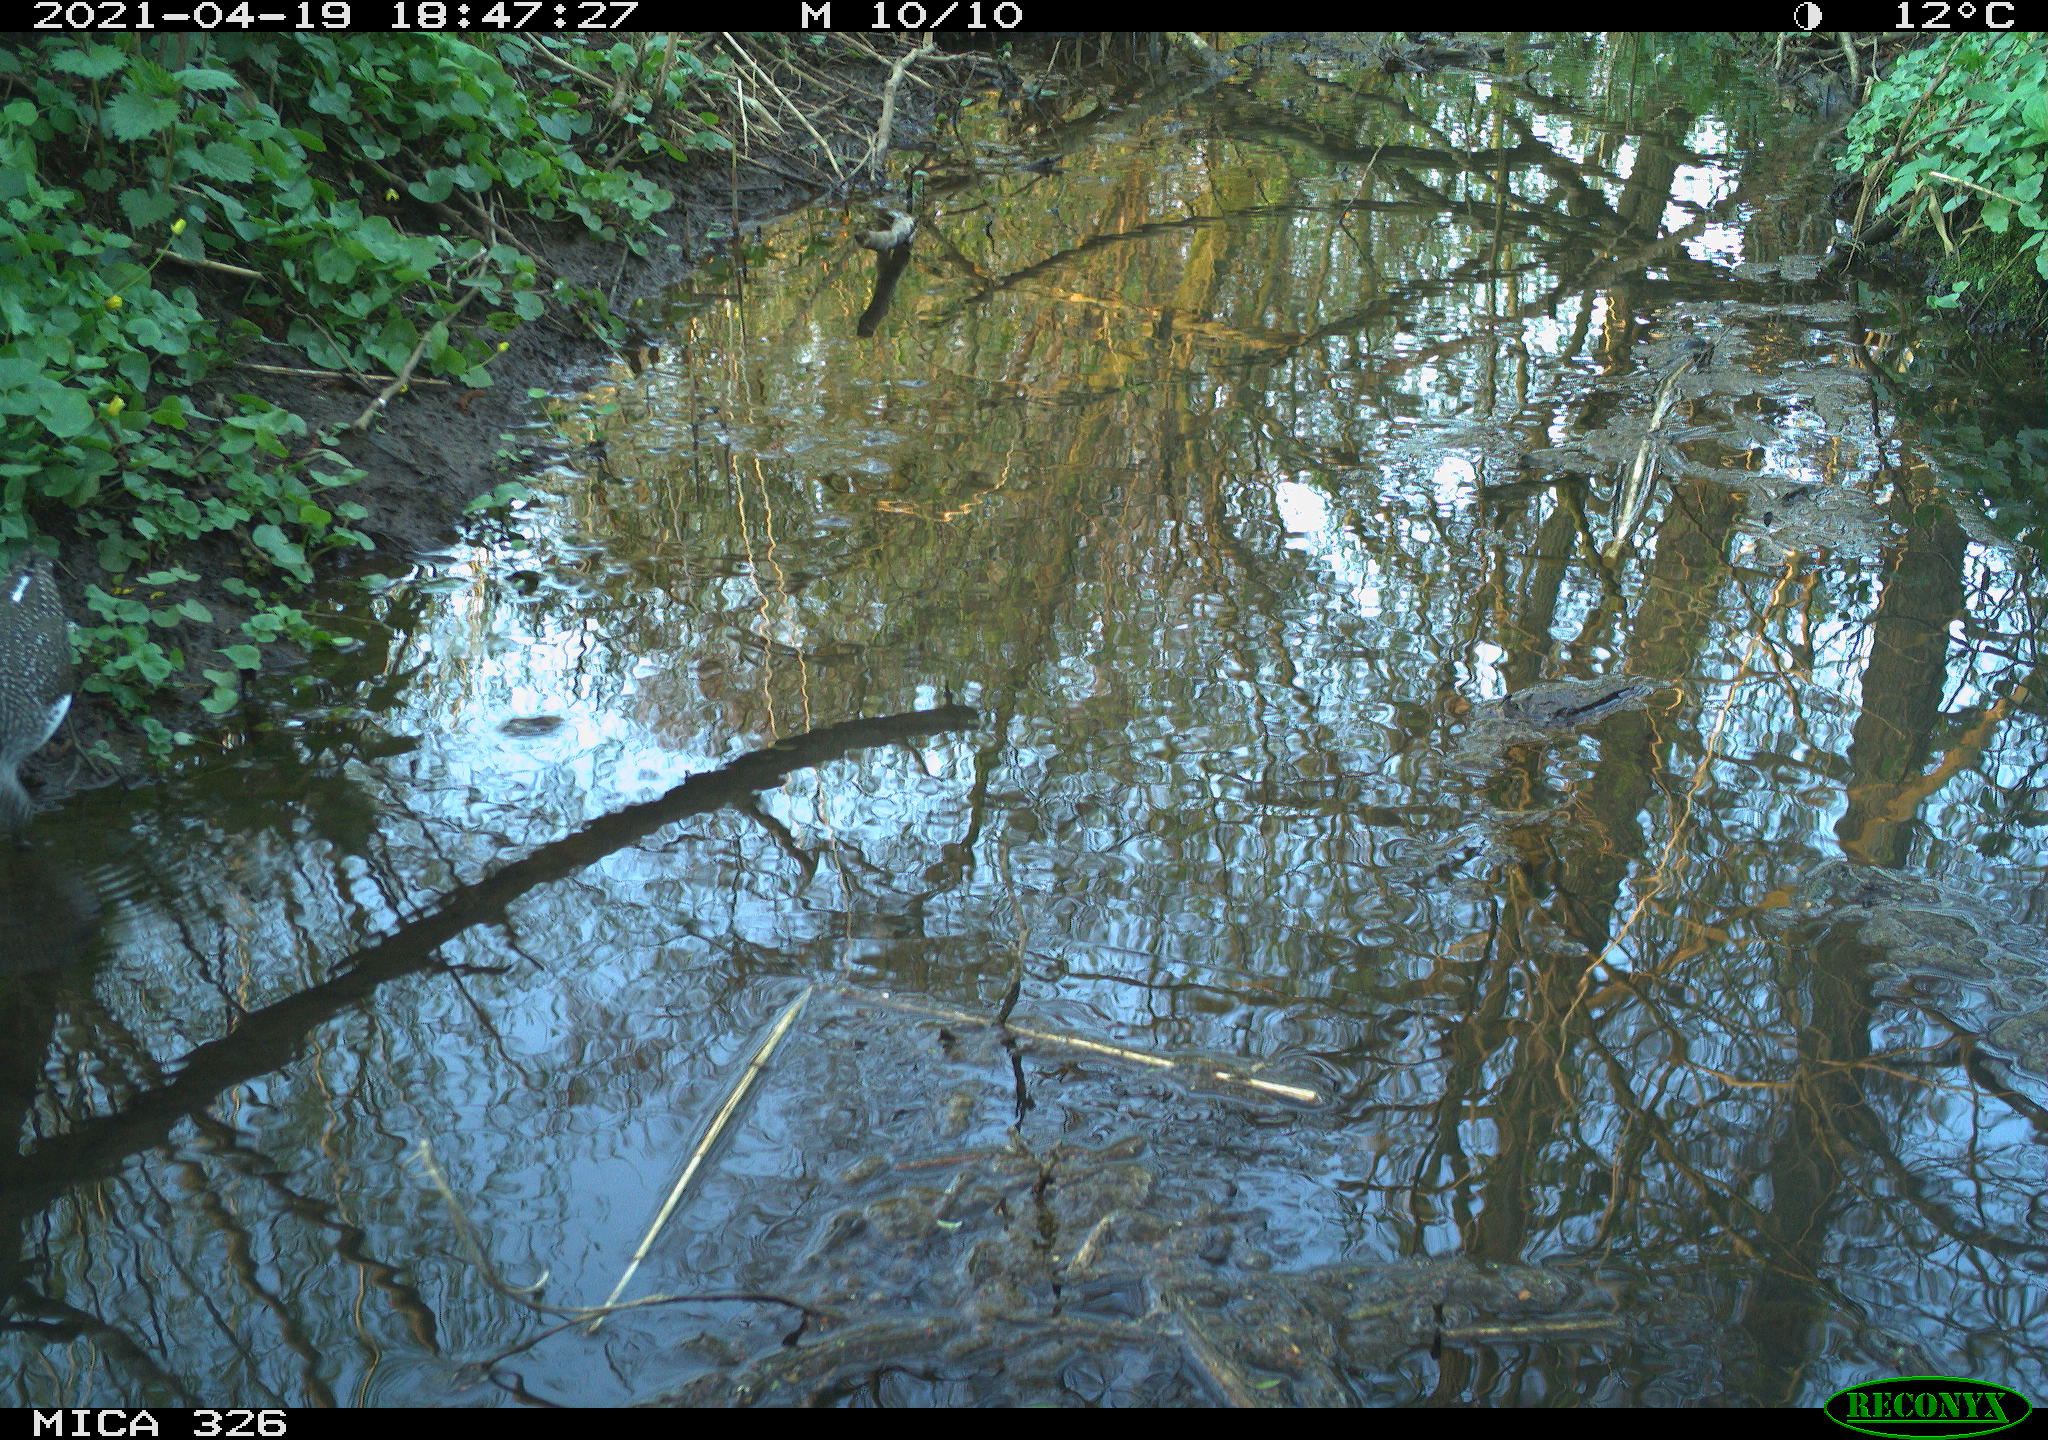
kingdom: Animalia
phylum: Chordata
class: Aves
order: Charadriiformes
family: Scolopacidae
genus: Tringa
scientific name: Tringa ochropus
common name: Green sandpiper
